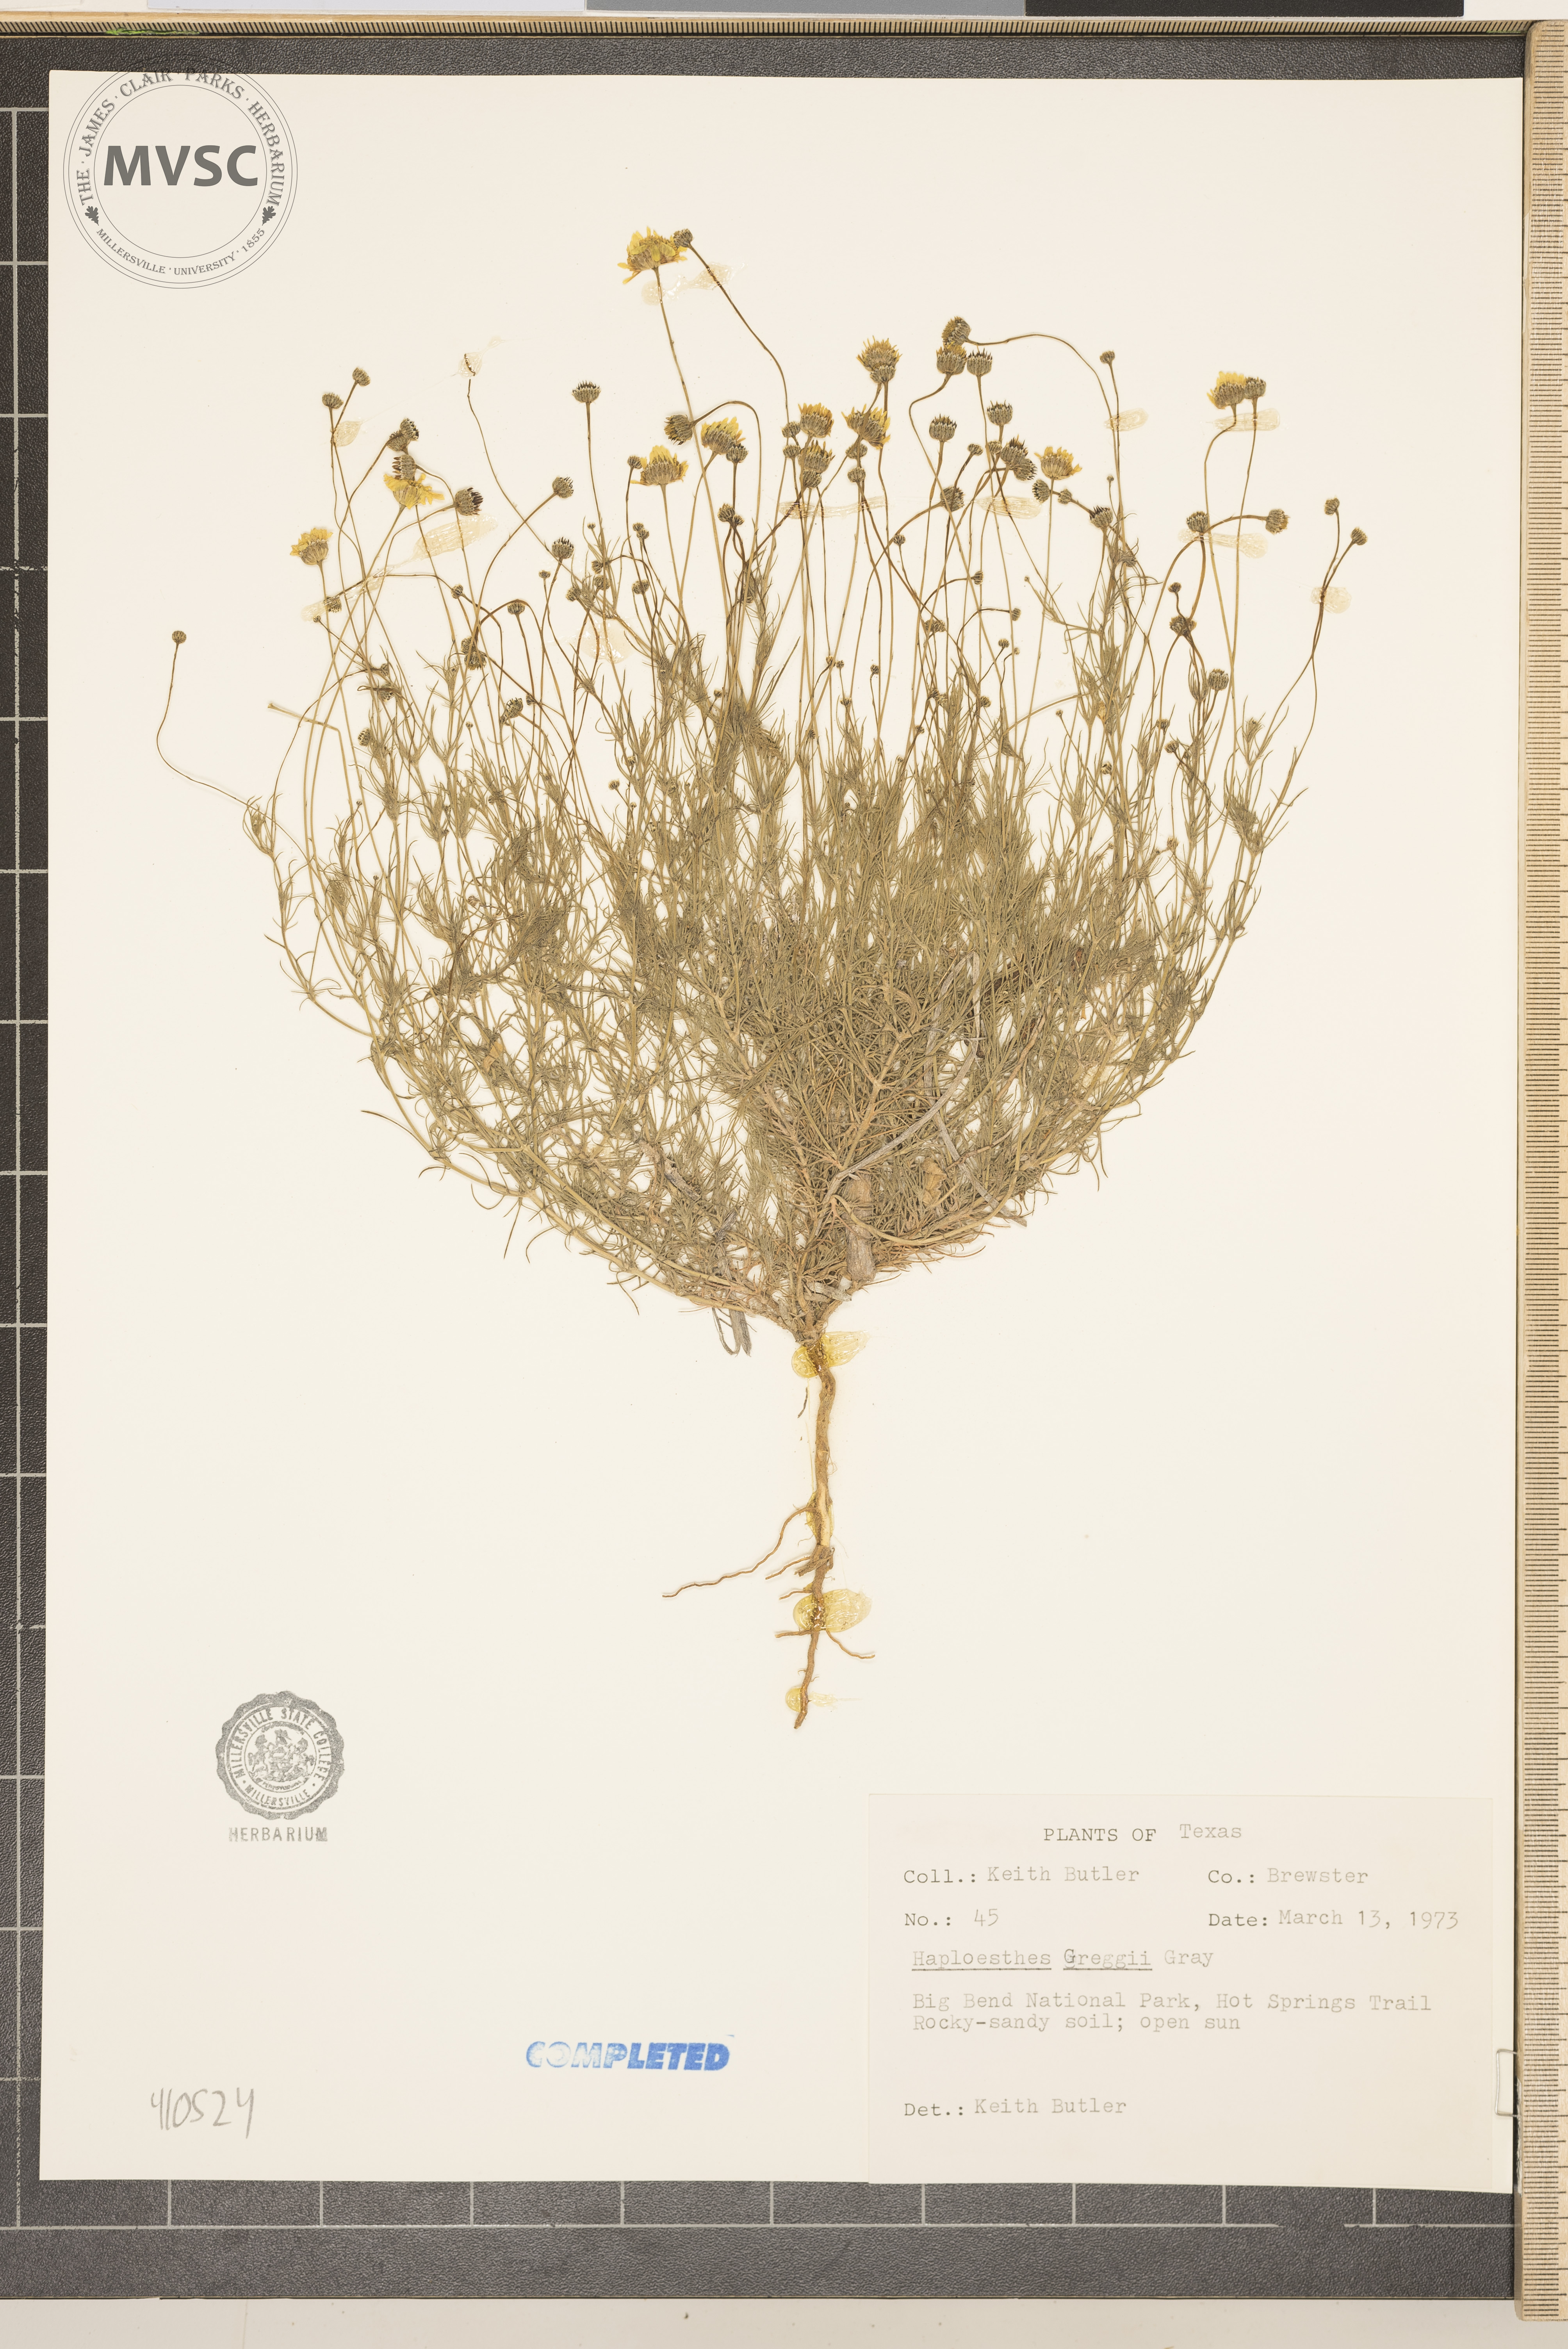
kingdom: Plantae
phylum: Tracheophyta
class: Magnoliopsida
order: Asterales
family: Asteraceae
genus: Haploesthes
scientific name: Haploesthes greggii
